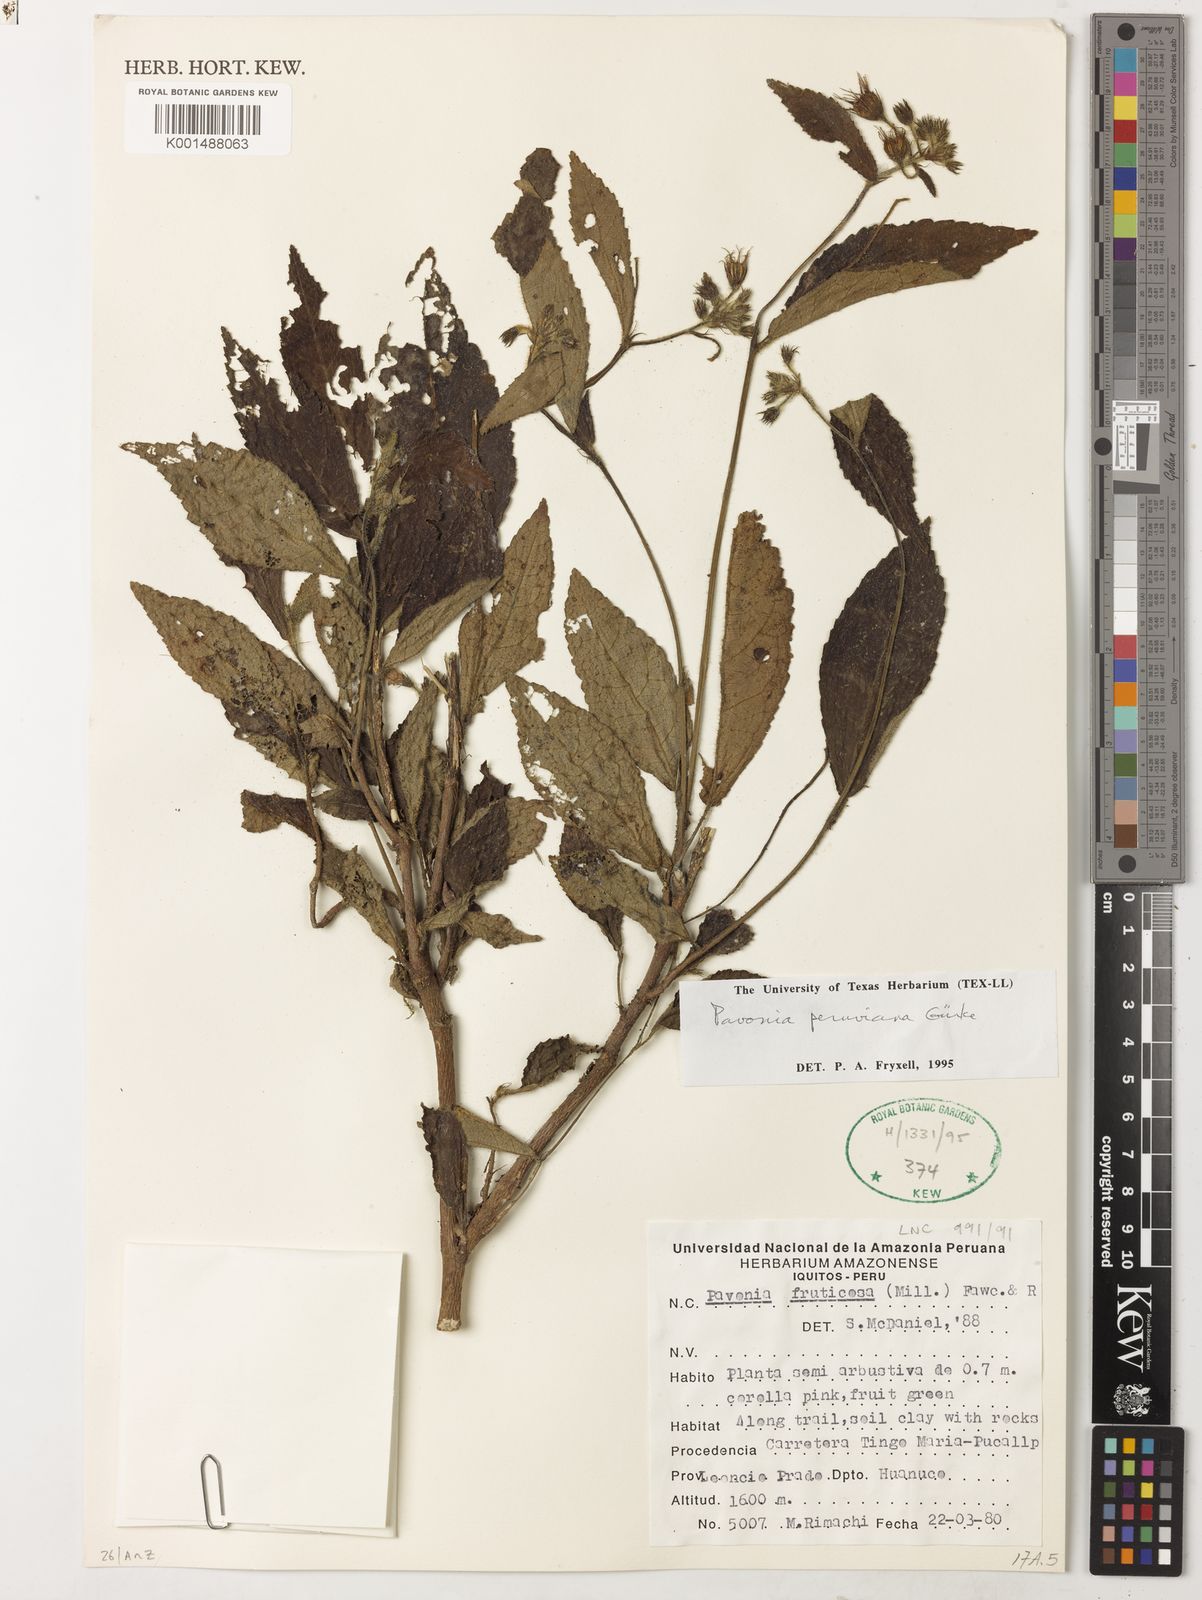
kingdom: Plantae
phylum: Tracheophyta
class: Magnoliopsida
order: Malvales
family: Malvaceae
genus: Pavonia
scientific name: Pavonia peruviana
